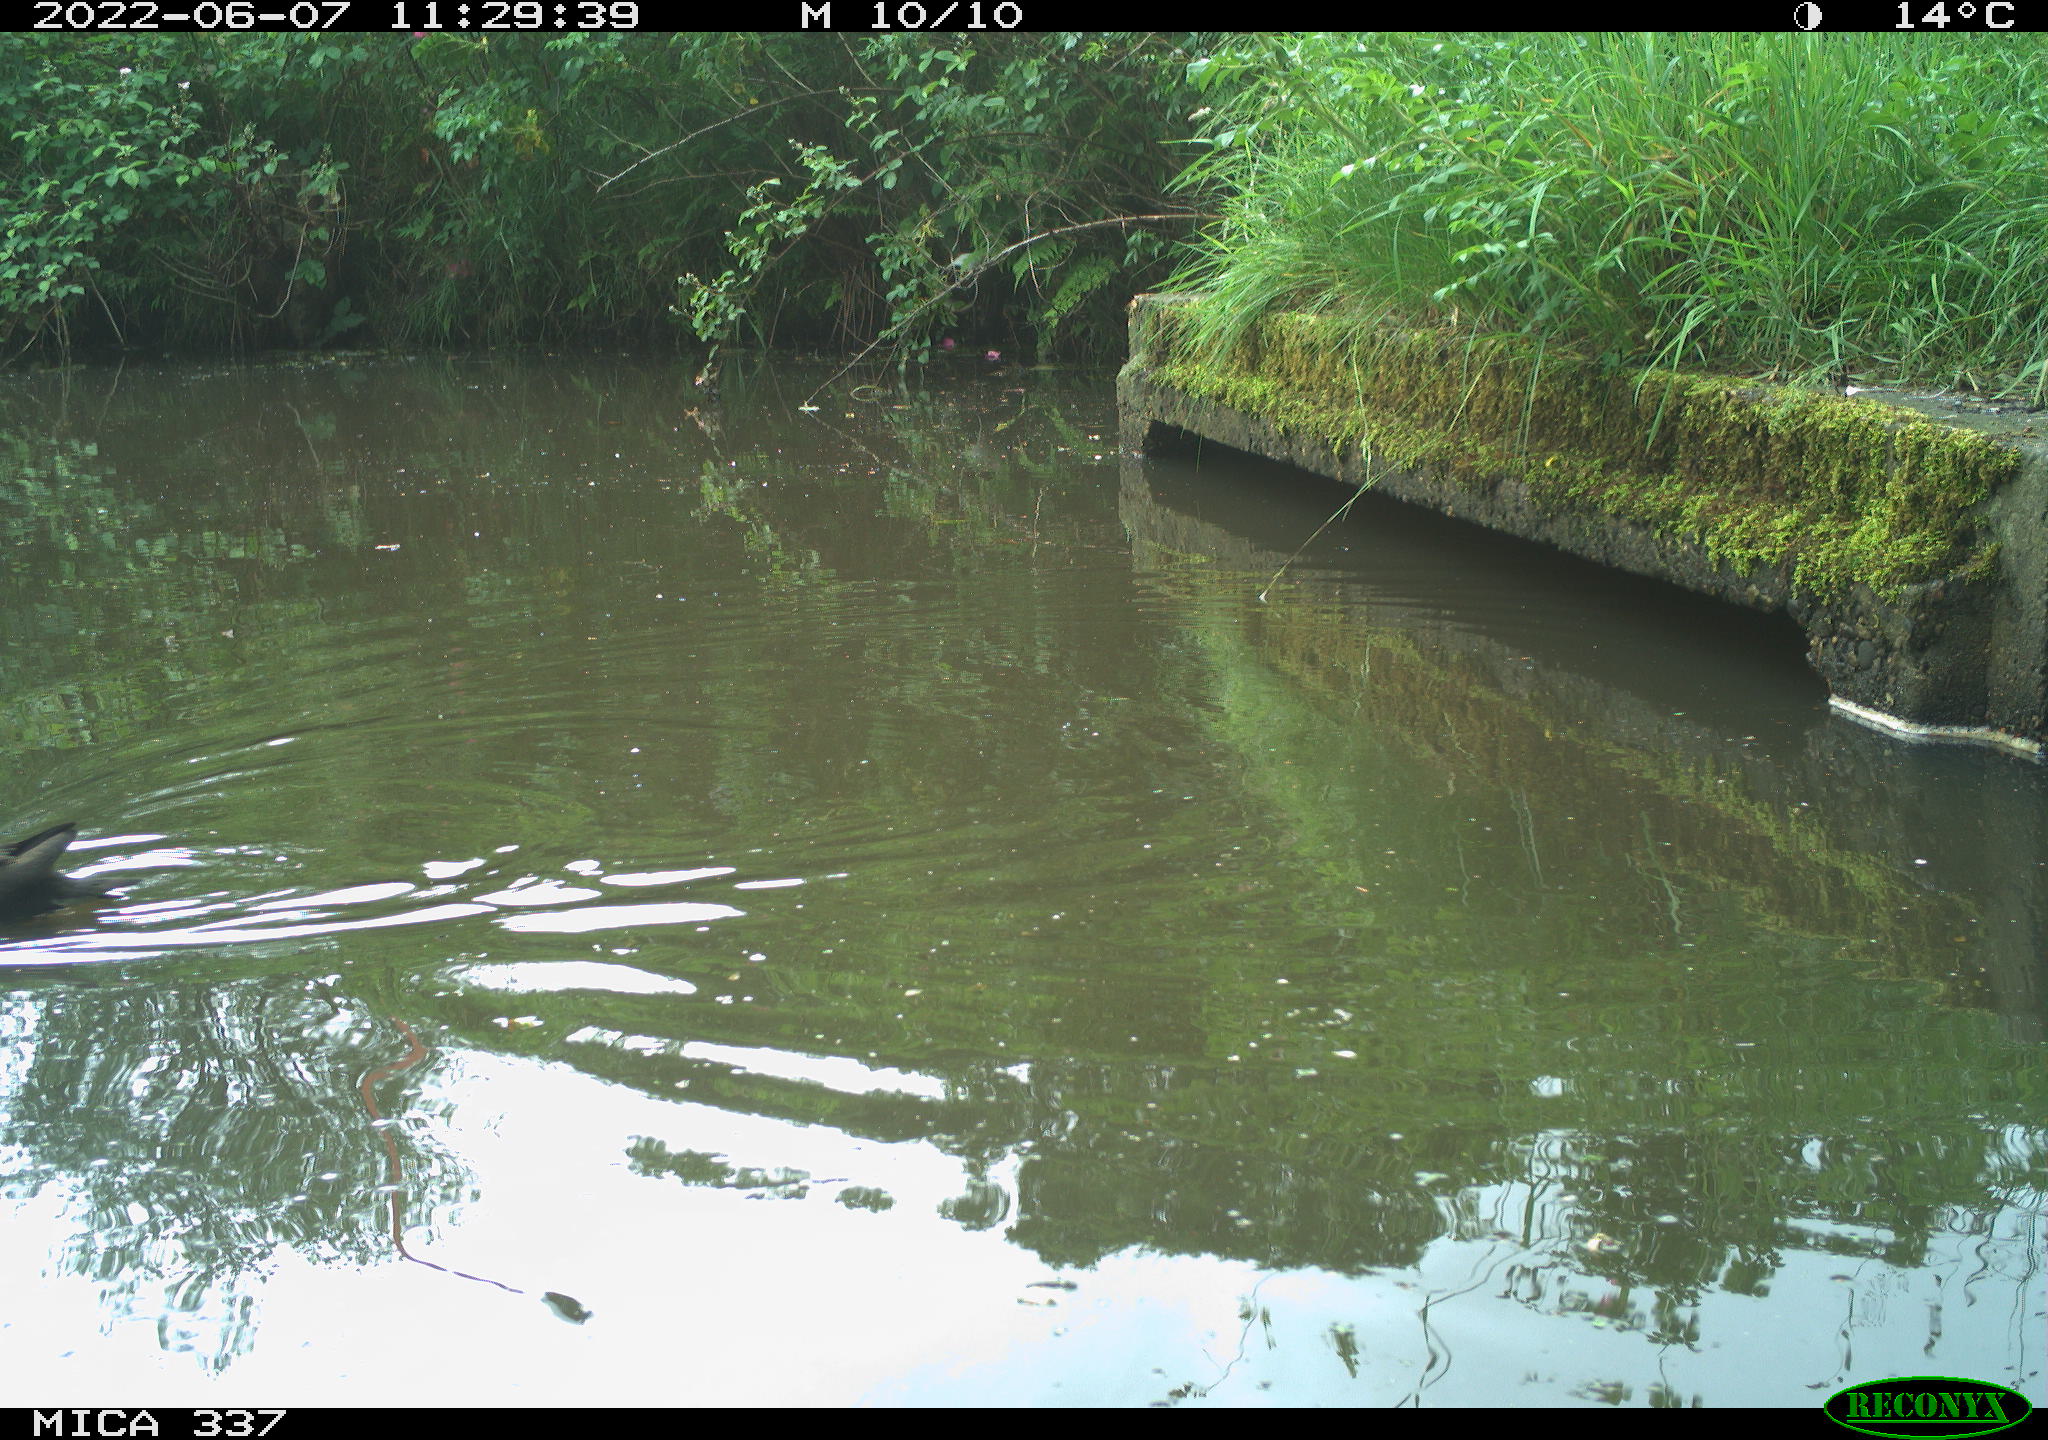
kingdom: Animalia
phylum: Chordata
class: Aves
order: Gruiformes
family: Rallidae
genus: Gallinula
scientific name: Gallinula chloropus
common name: Common moorhen
